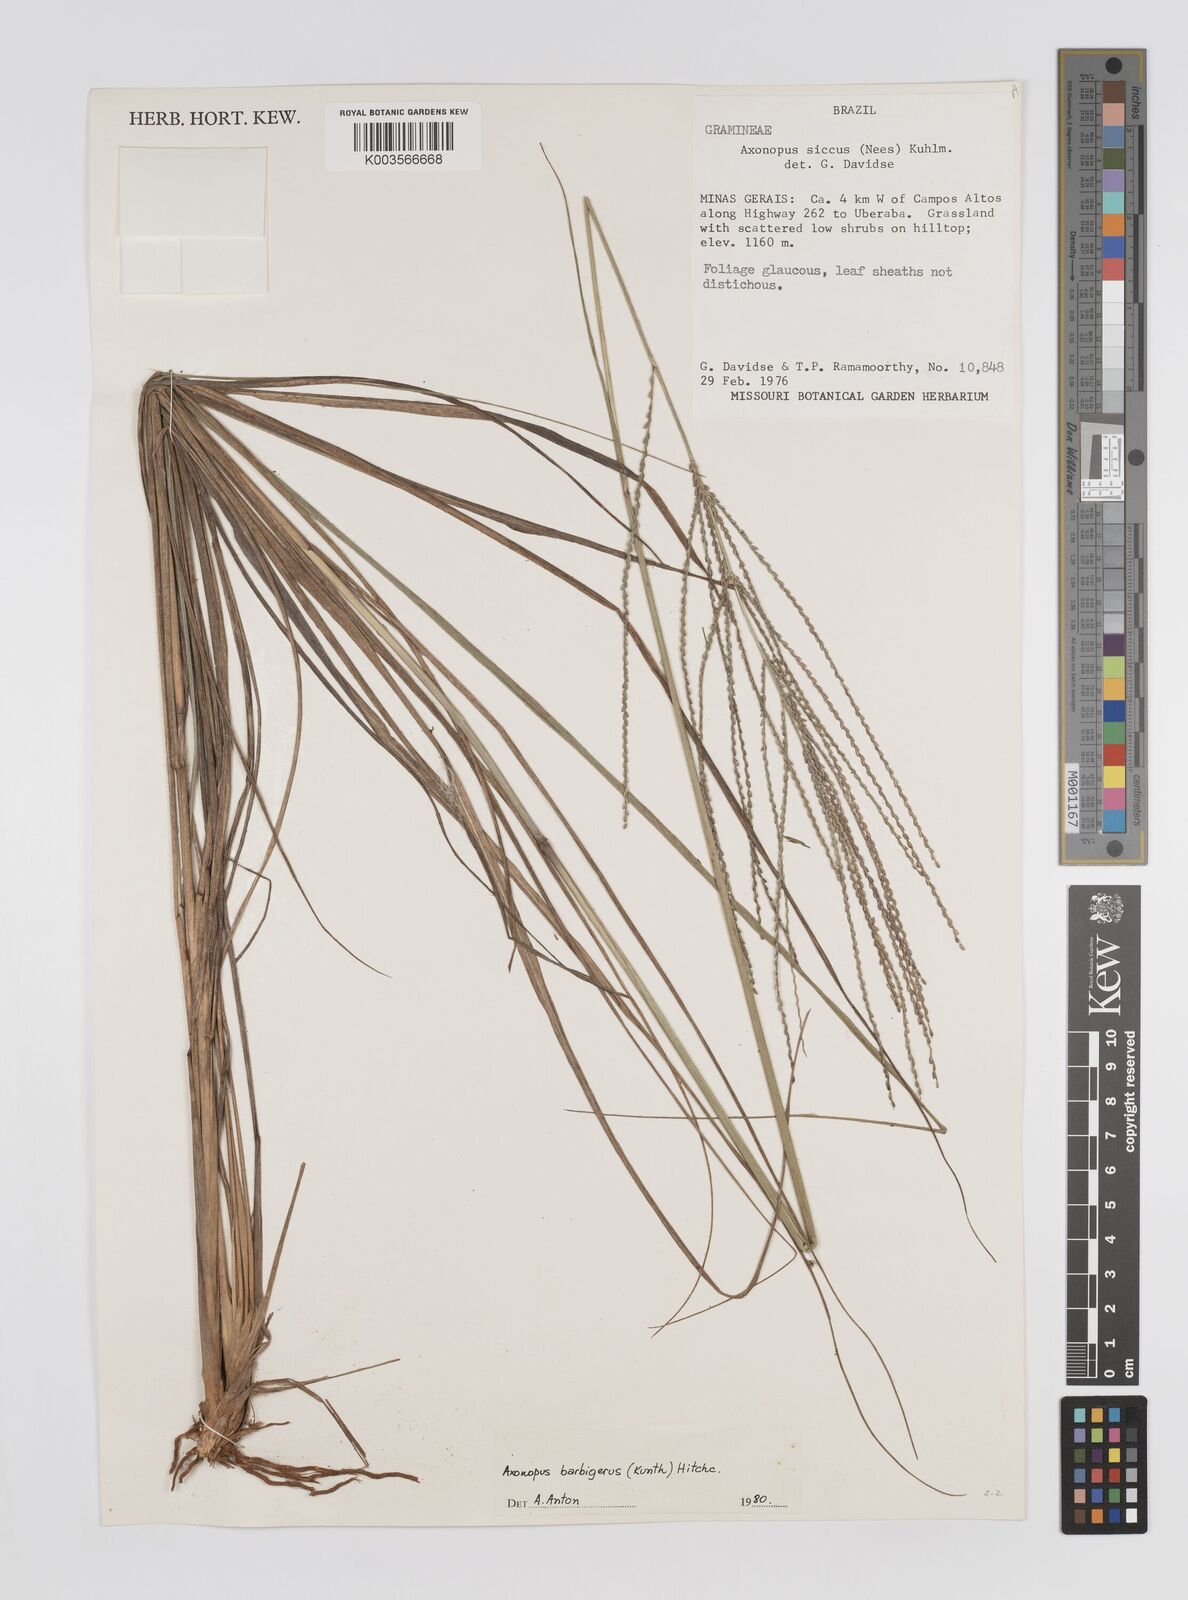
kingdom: Plantae
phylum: Tracheophyta
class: Liliopsida
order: Poales
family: Poaceae
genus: Axonopus
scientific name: Axonopus siccus
